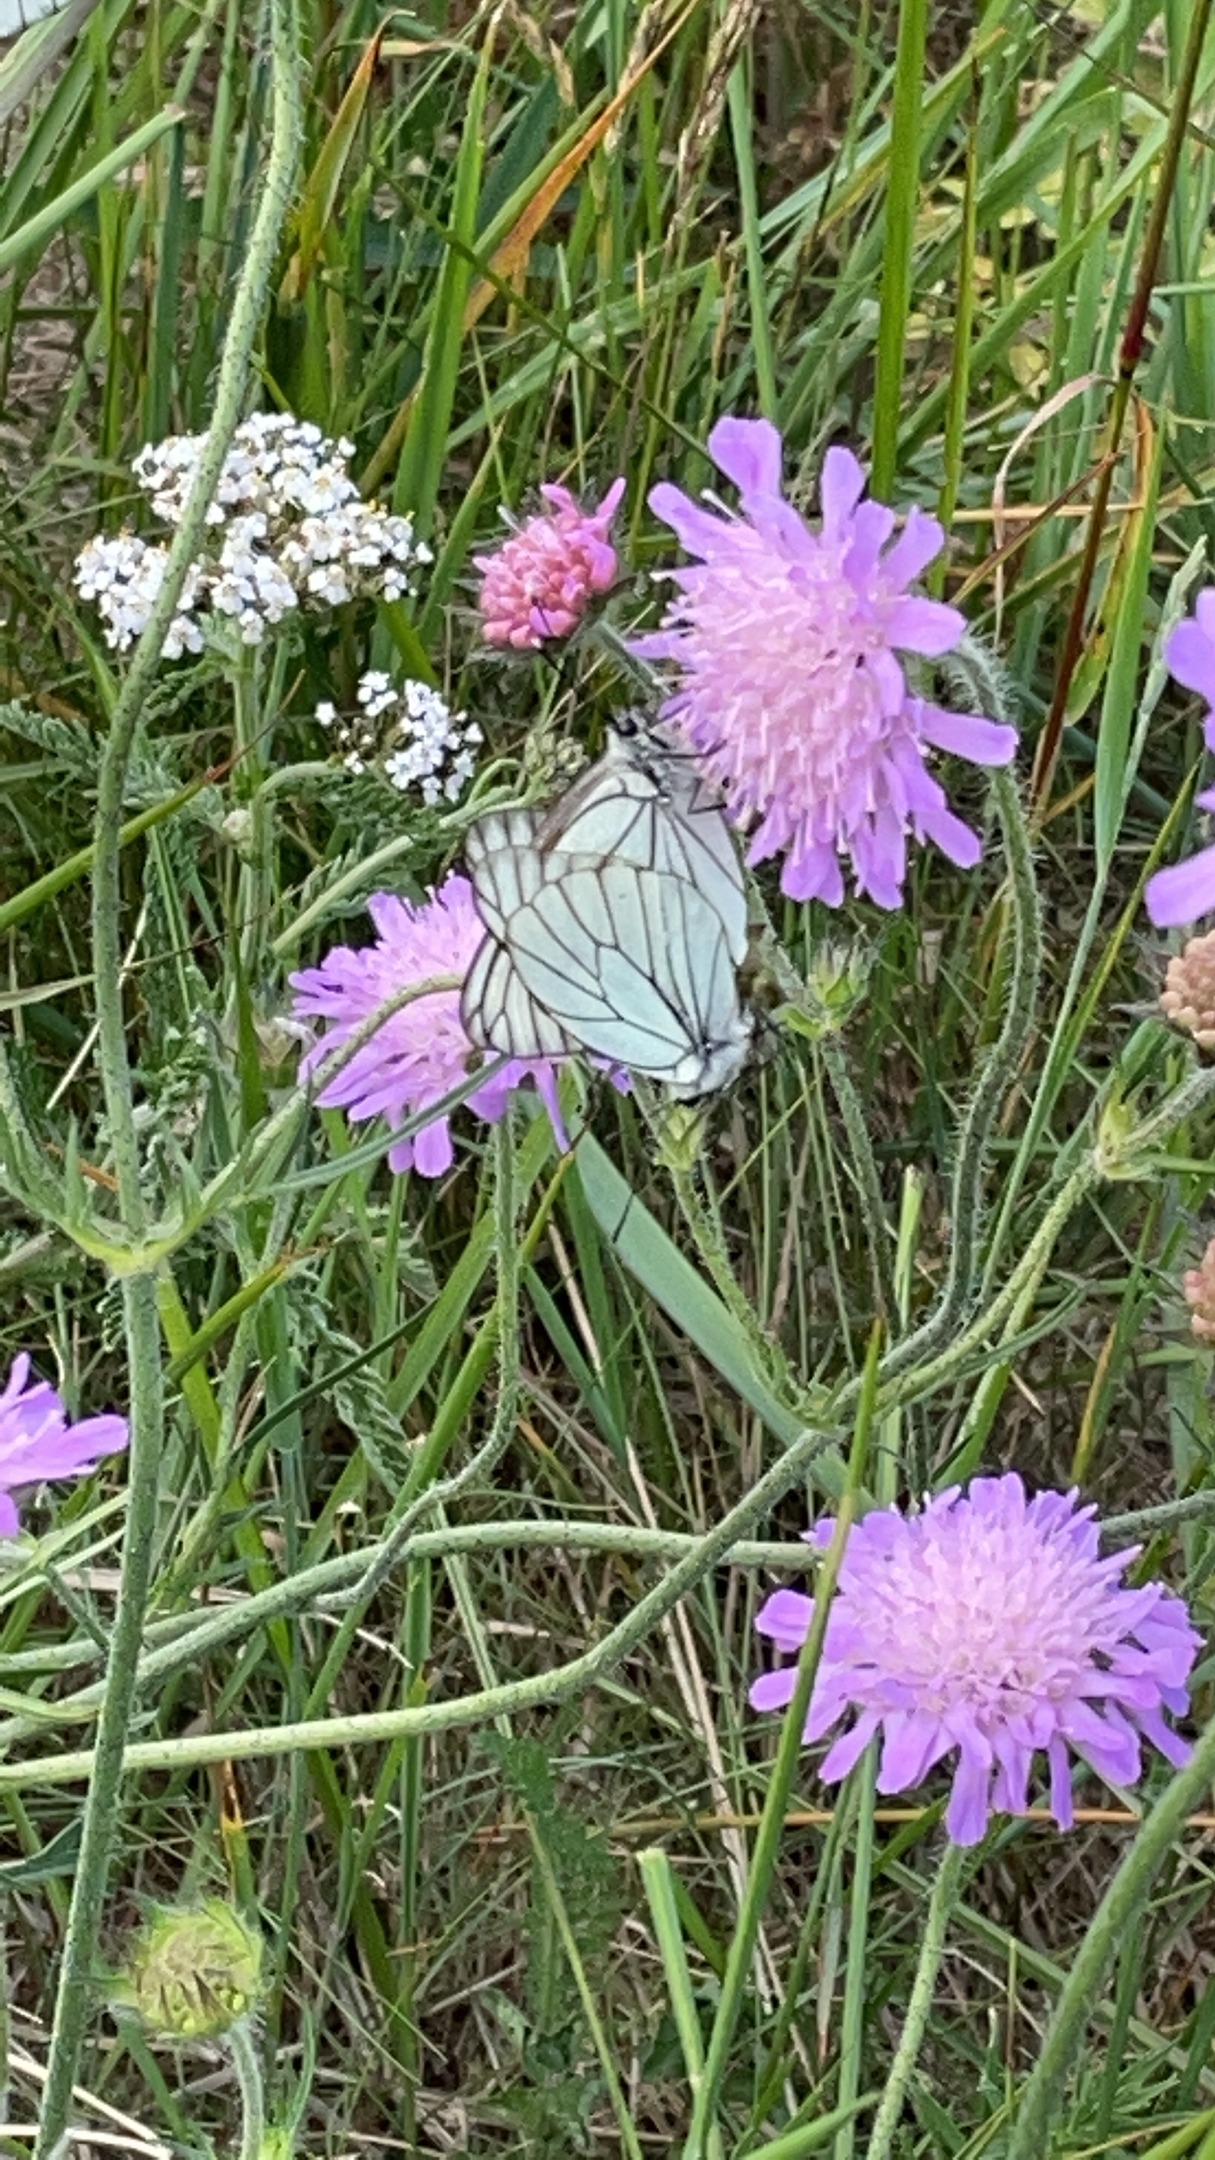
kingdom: Animalia
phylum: Arthropoda
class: Insecta
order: Lepidoptera
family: Pieridae
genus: Aporia
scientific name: Aporia crataegi
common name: Sortåret hvidvinge
